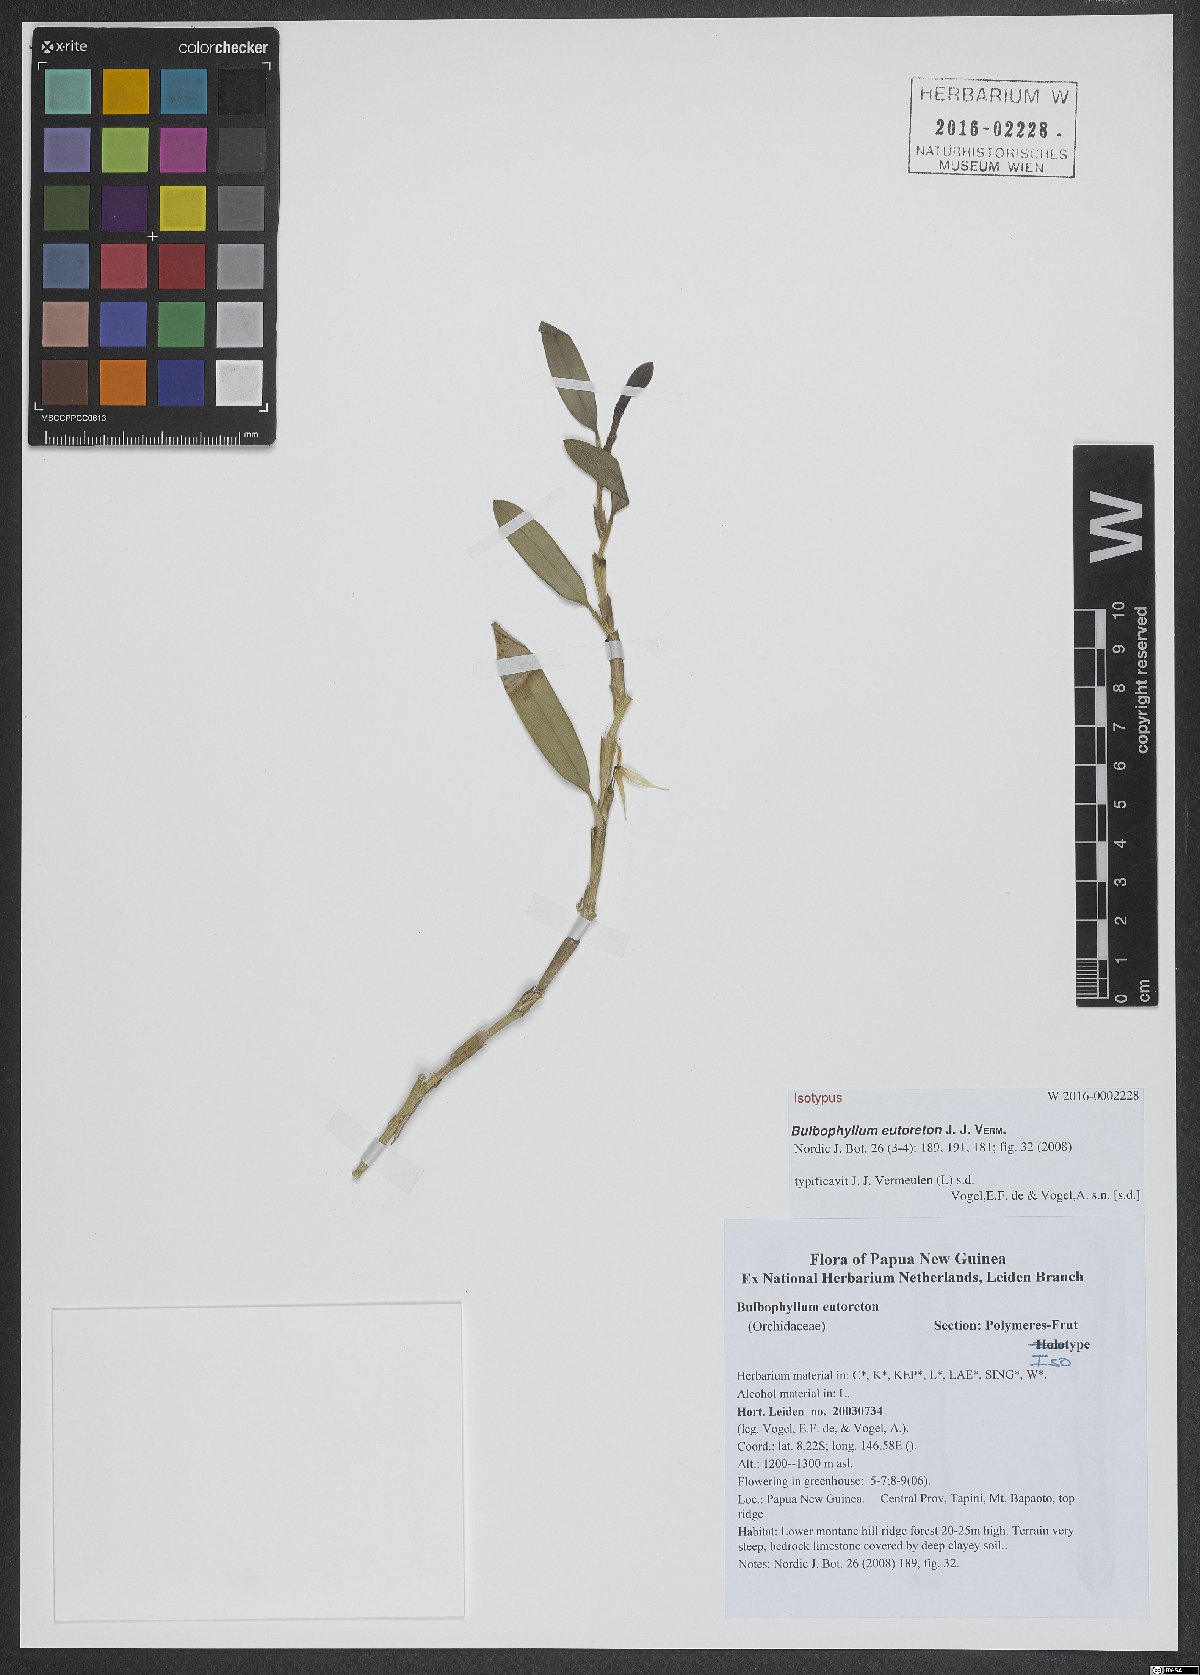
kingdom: Plantae
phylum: Tracheophyta
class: Liliopsida
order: Asparagales
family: Orchidaceae
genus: Bulbophyllum
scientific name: Bulbophyllum eutoreton
